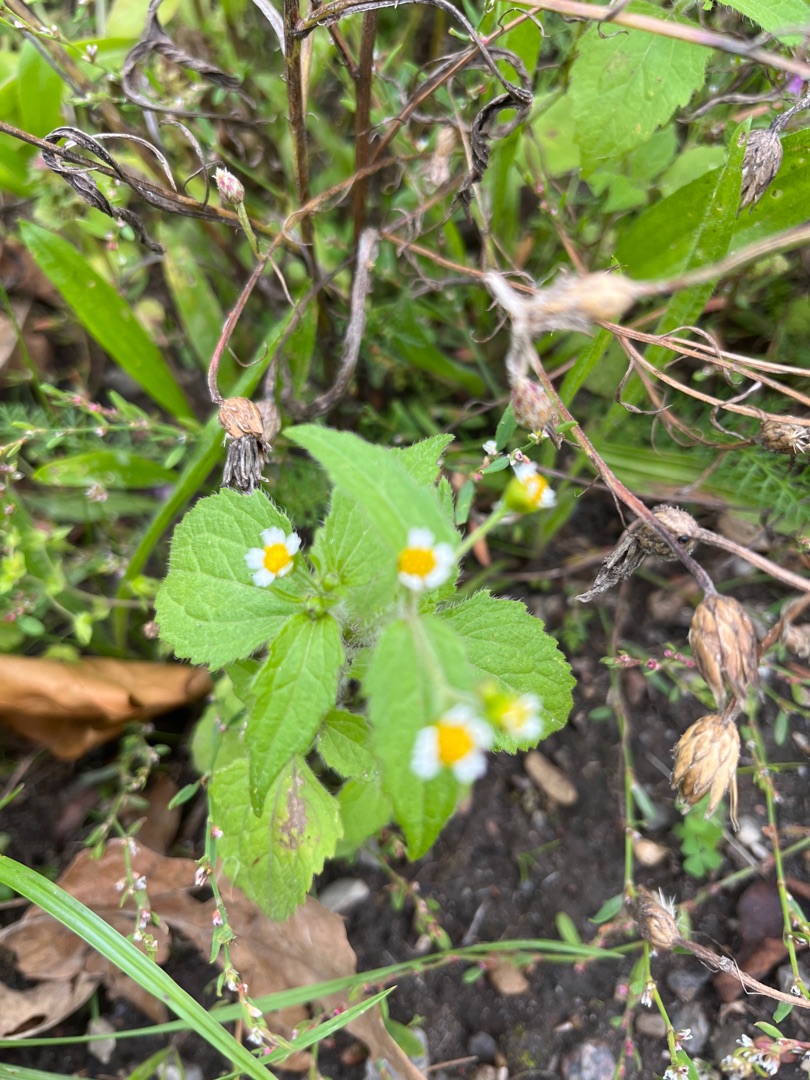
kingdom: Plantae
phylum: Tracheophyta
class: Magnoliopsida
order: Asterales
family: Asteraceae
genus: Galinsoga
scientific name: Galinsoga quadriradiata
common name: Kirtel-kortstråle
